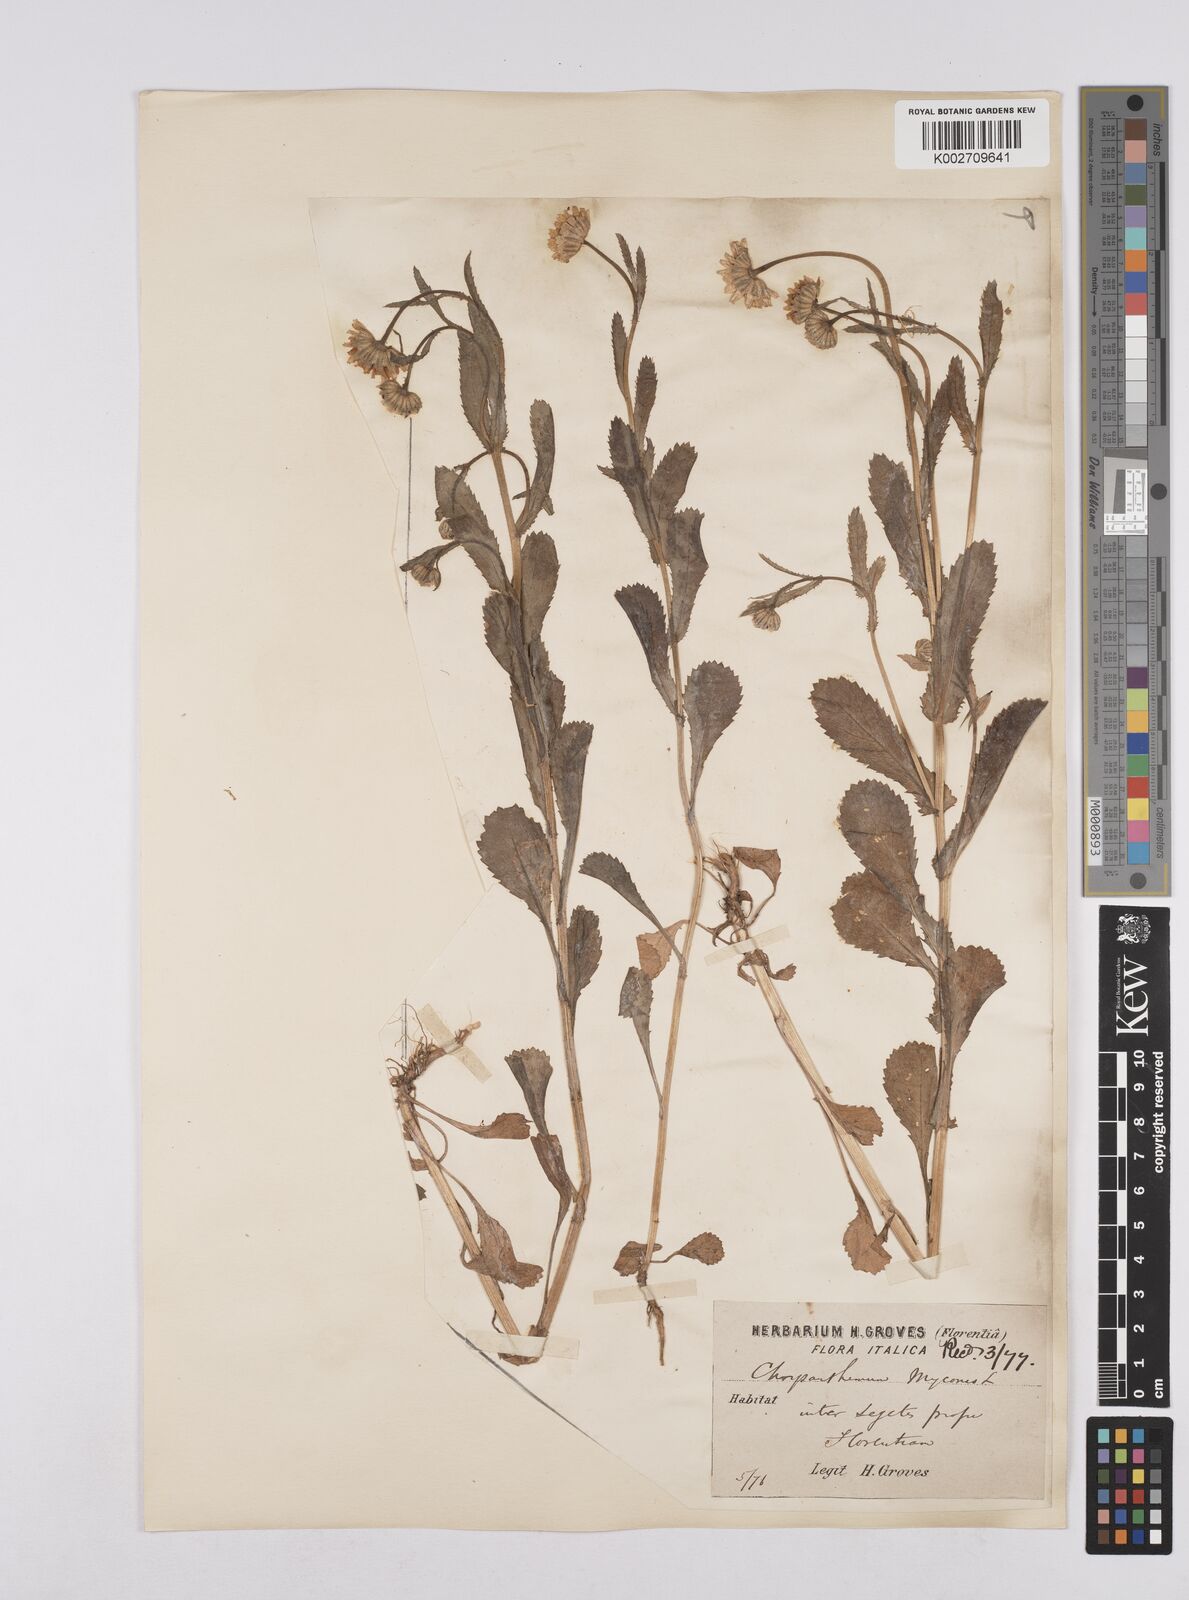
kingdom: Plantae
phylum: Tracheophyta
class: Magnoliopsida
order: Asterales
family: Asteraceae
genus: Coleostephus
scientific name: Coleostephus myconis
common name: Mediterranean marigold
